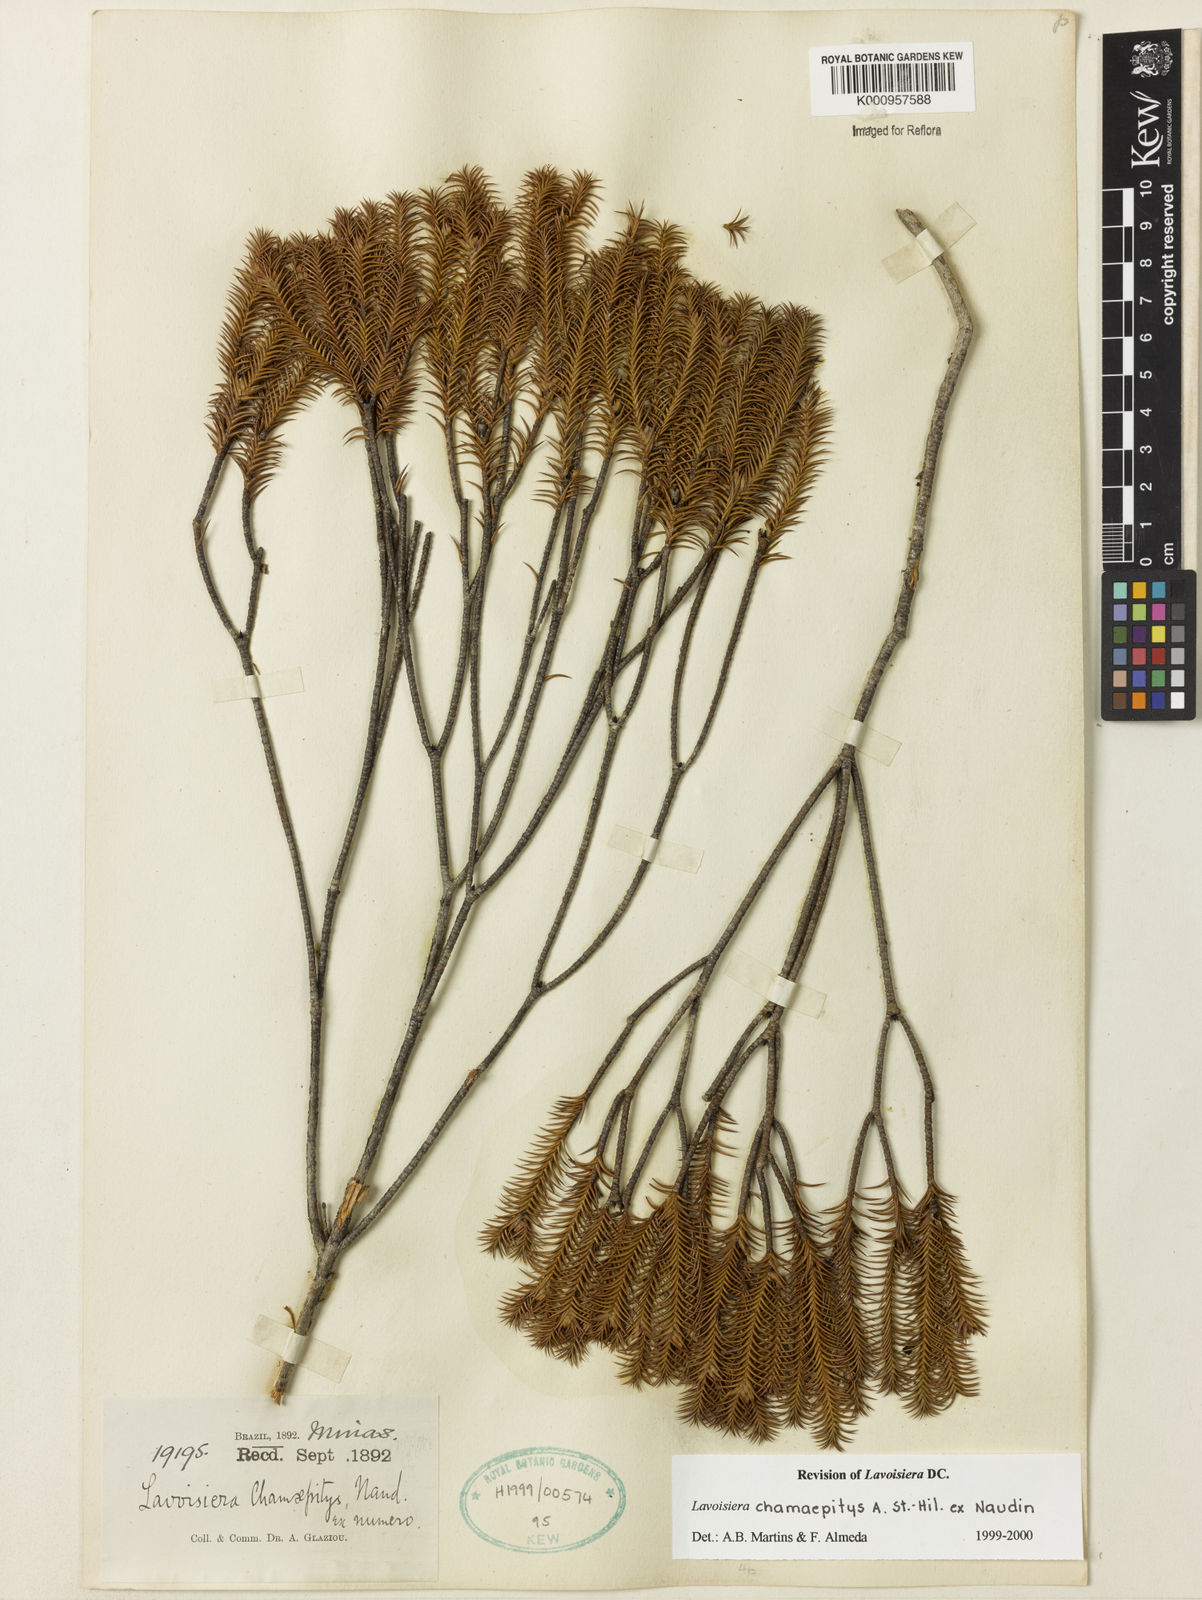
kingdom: Plantae
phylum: Tracheophyta
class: Magnoliopsida
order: Myrtales
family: Melastomataceae
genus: Microlicia
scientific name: Microlicia hilairei
